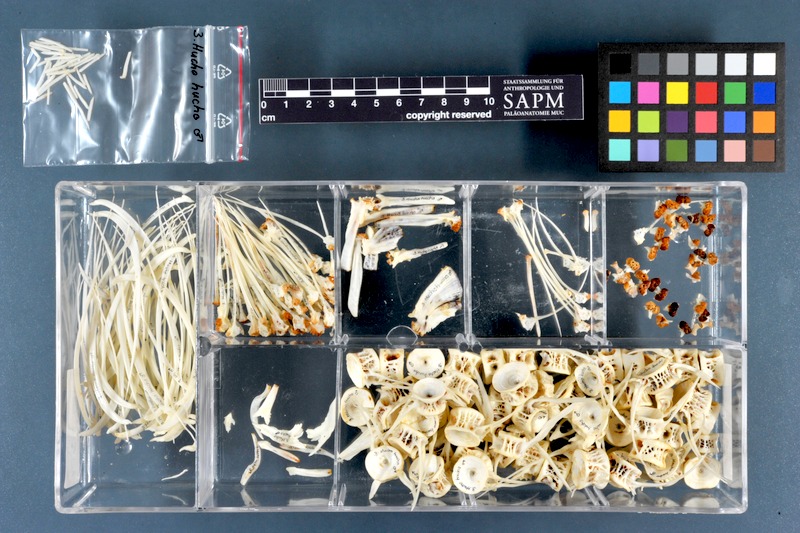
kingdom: Animalia
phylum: Chordata
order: Salmoniformes
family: Salmonidae
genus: Hucho
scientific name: Hucho hucho
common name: Huchen (danube salmon)
